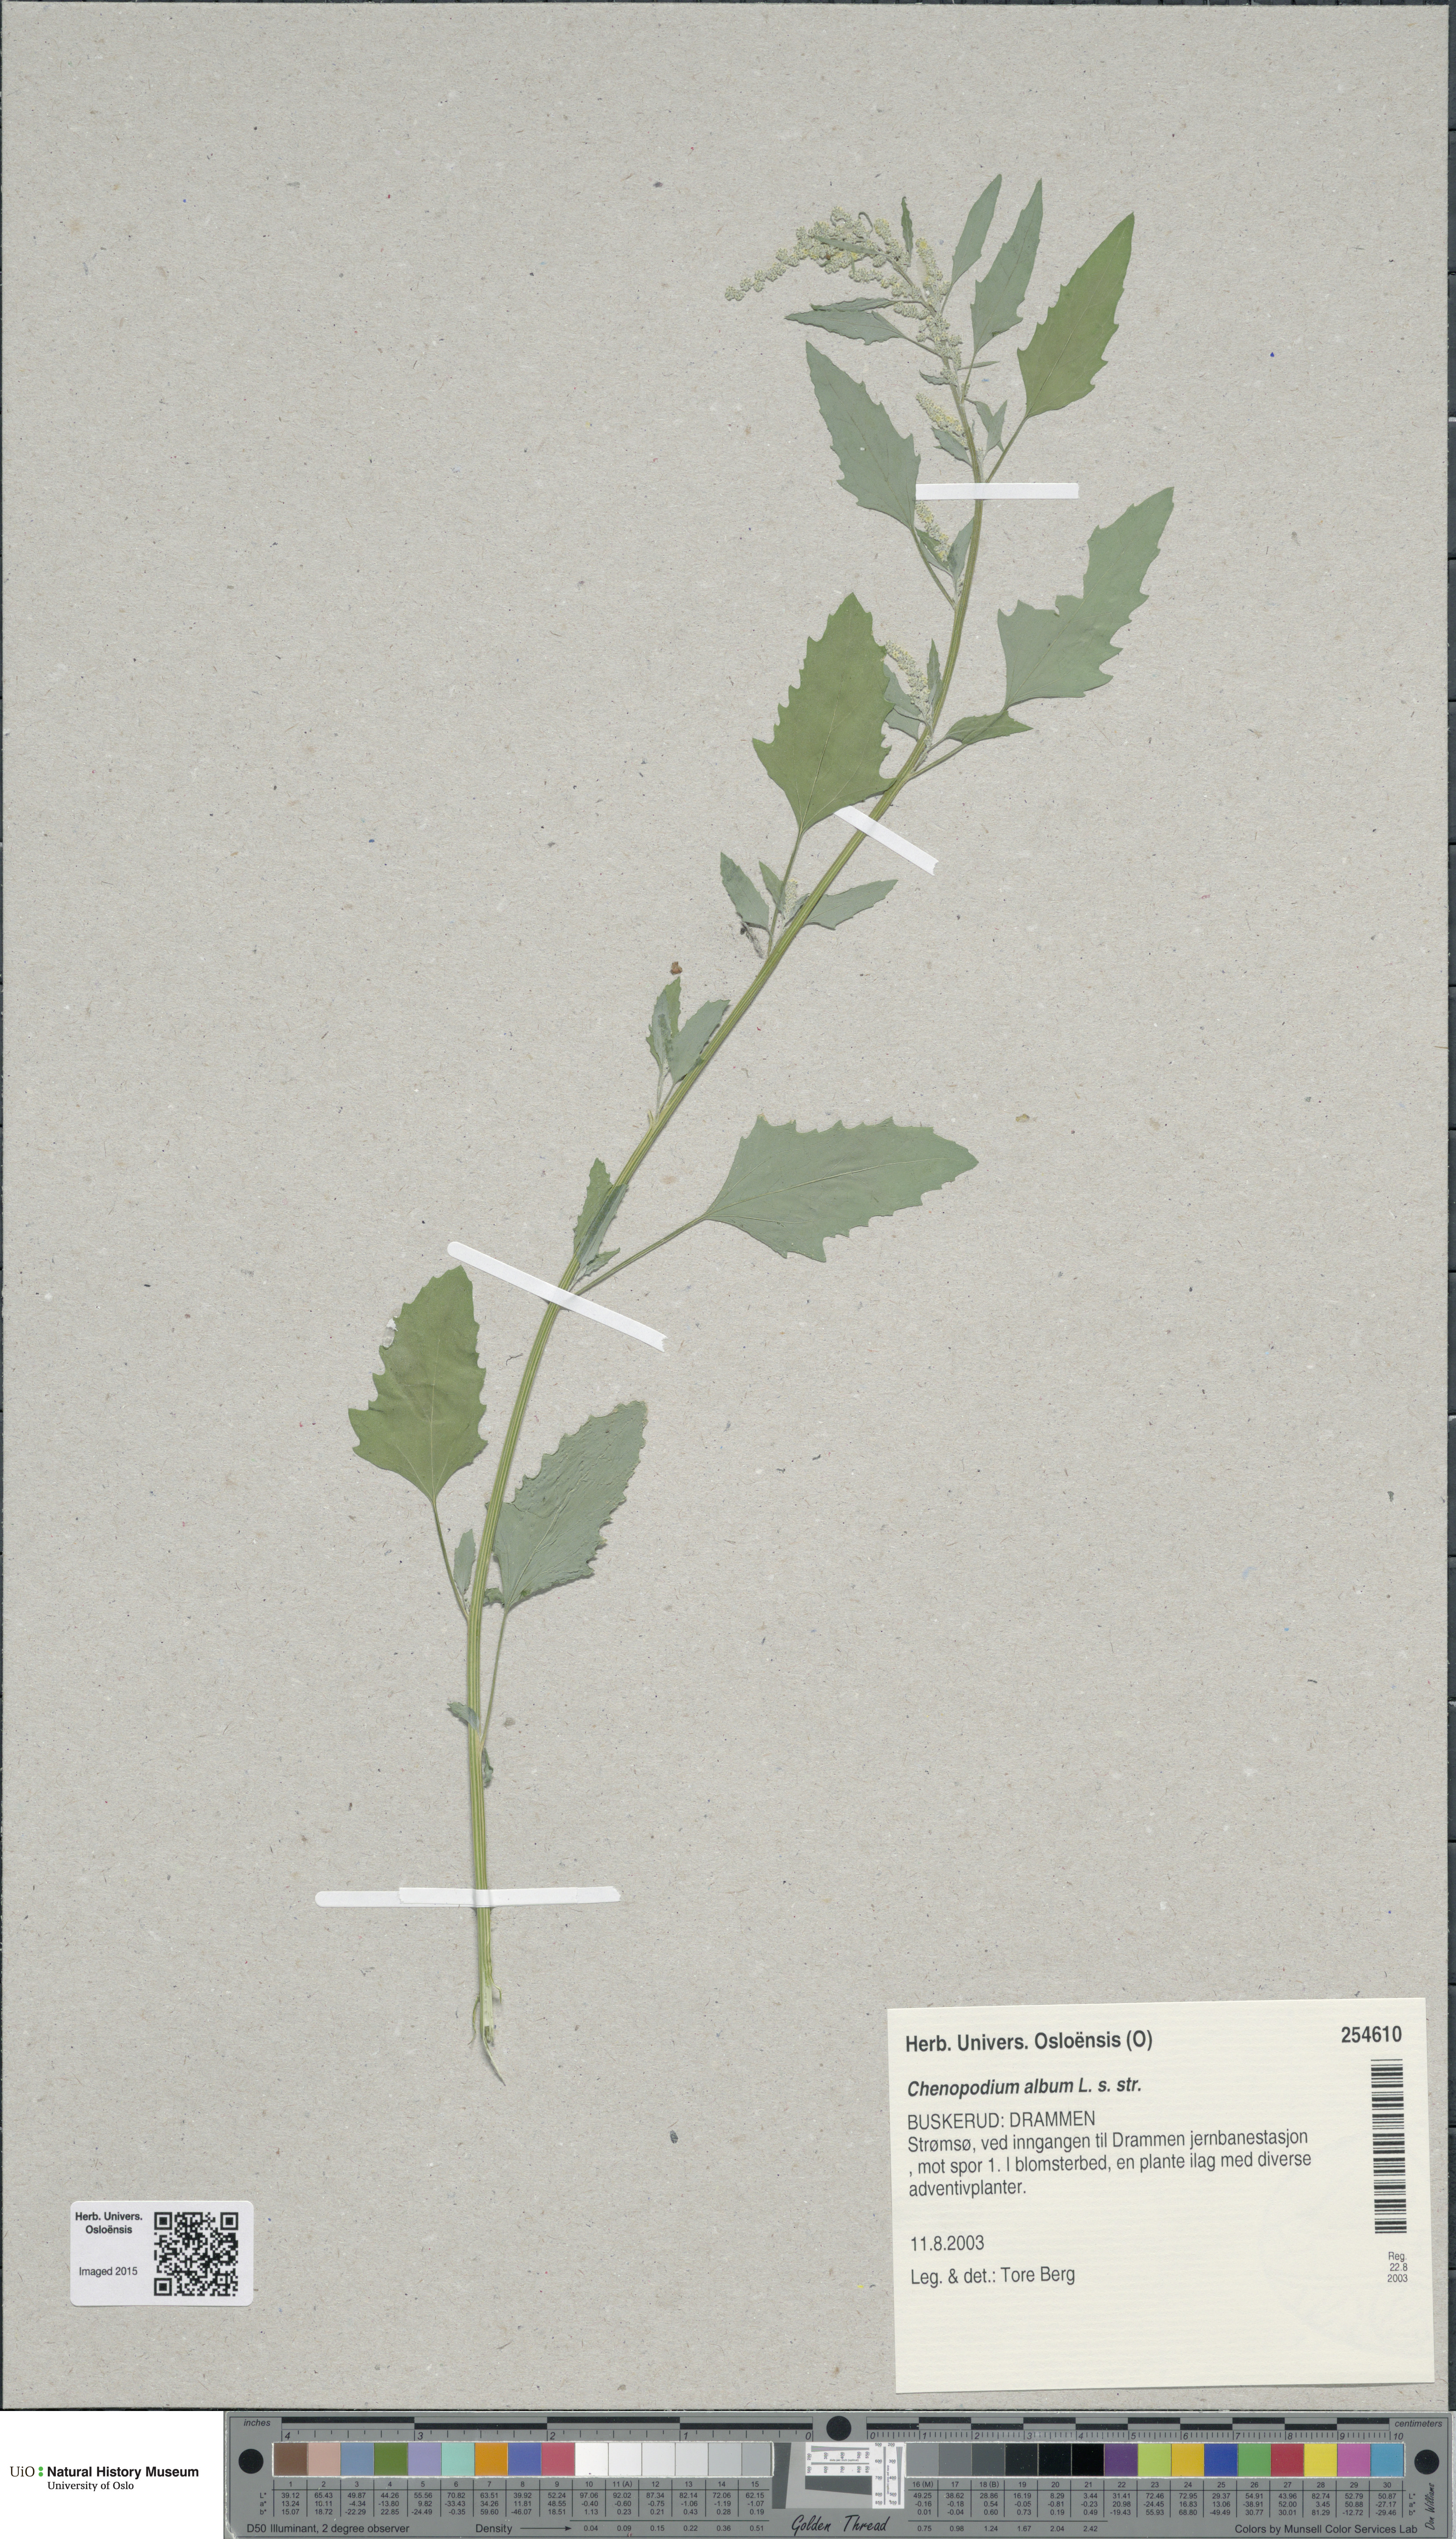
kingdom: Plantae
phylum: Tracheophyta
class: Magnoliopsida
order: Caryophyllales
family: Amaranthaceae
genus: Chenopodium
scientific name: Chenopodium album
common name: Fat-hen
